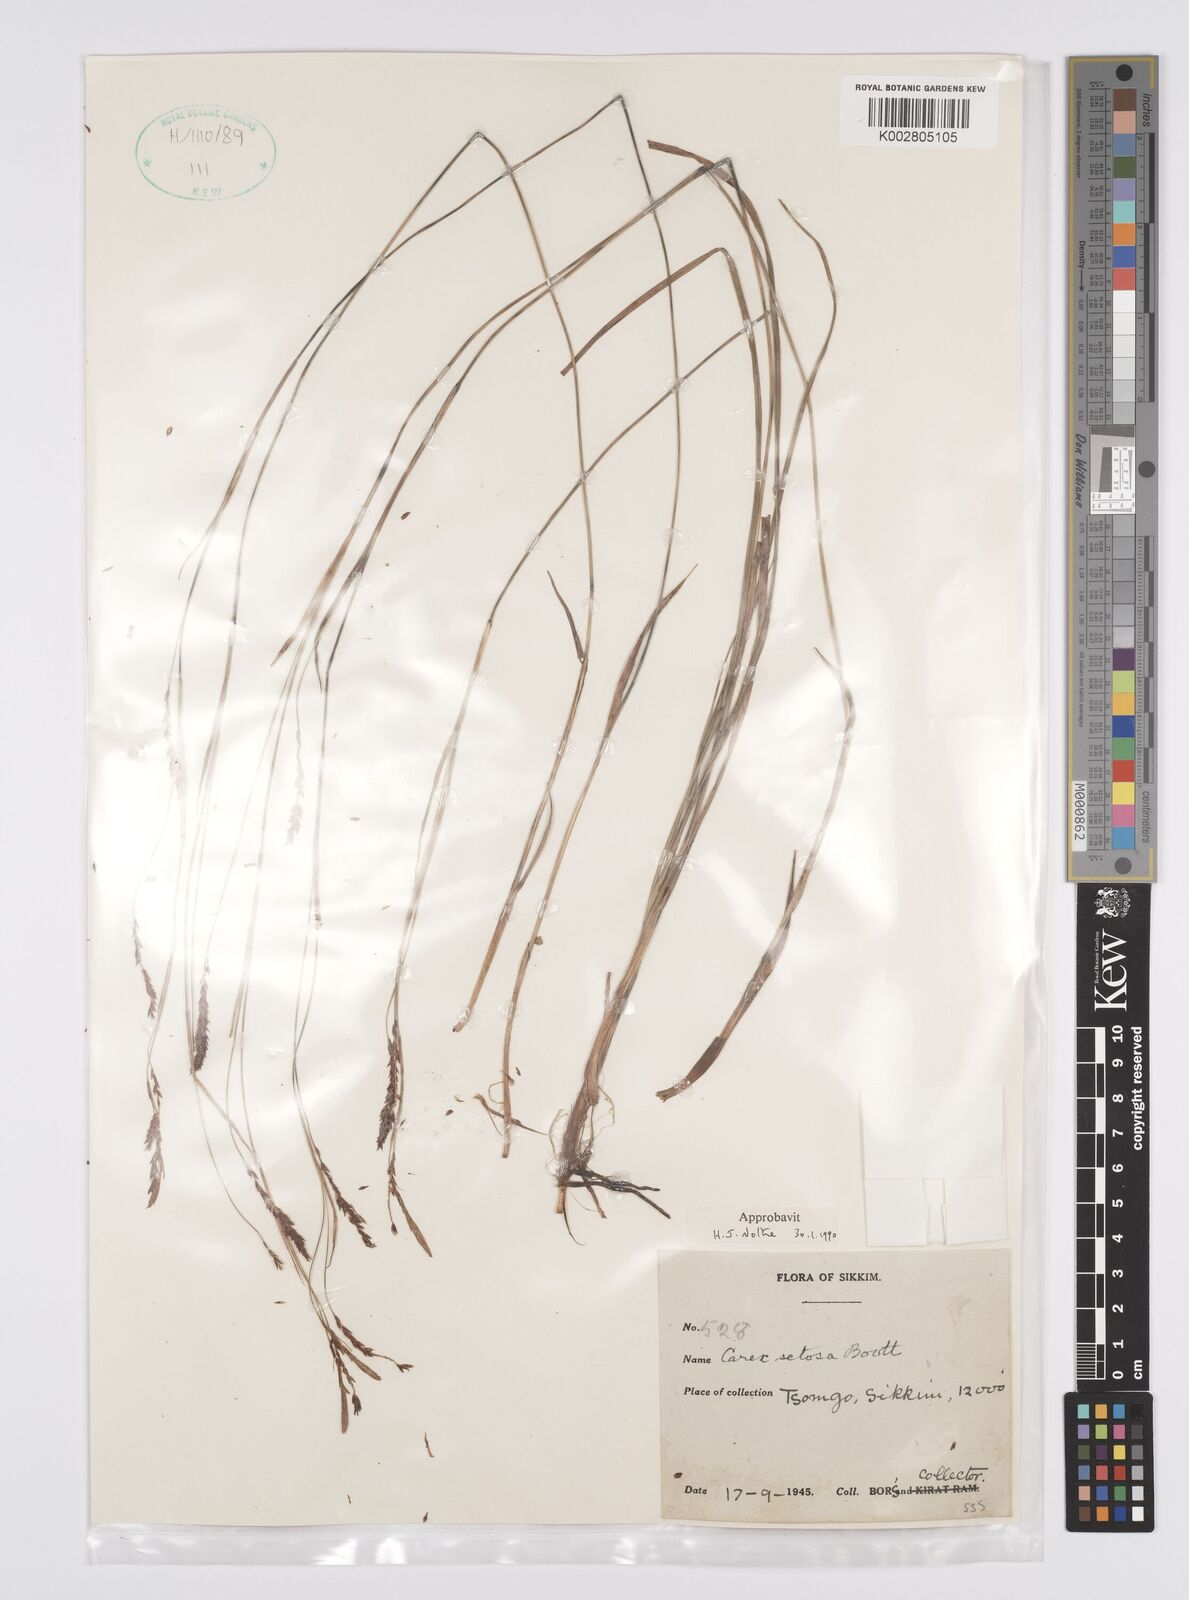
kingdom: Plantae
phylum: Tracheophyta
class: Liliopsida
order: Poales
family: Cyperaceae
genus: Carex
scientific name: Carex setosa
